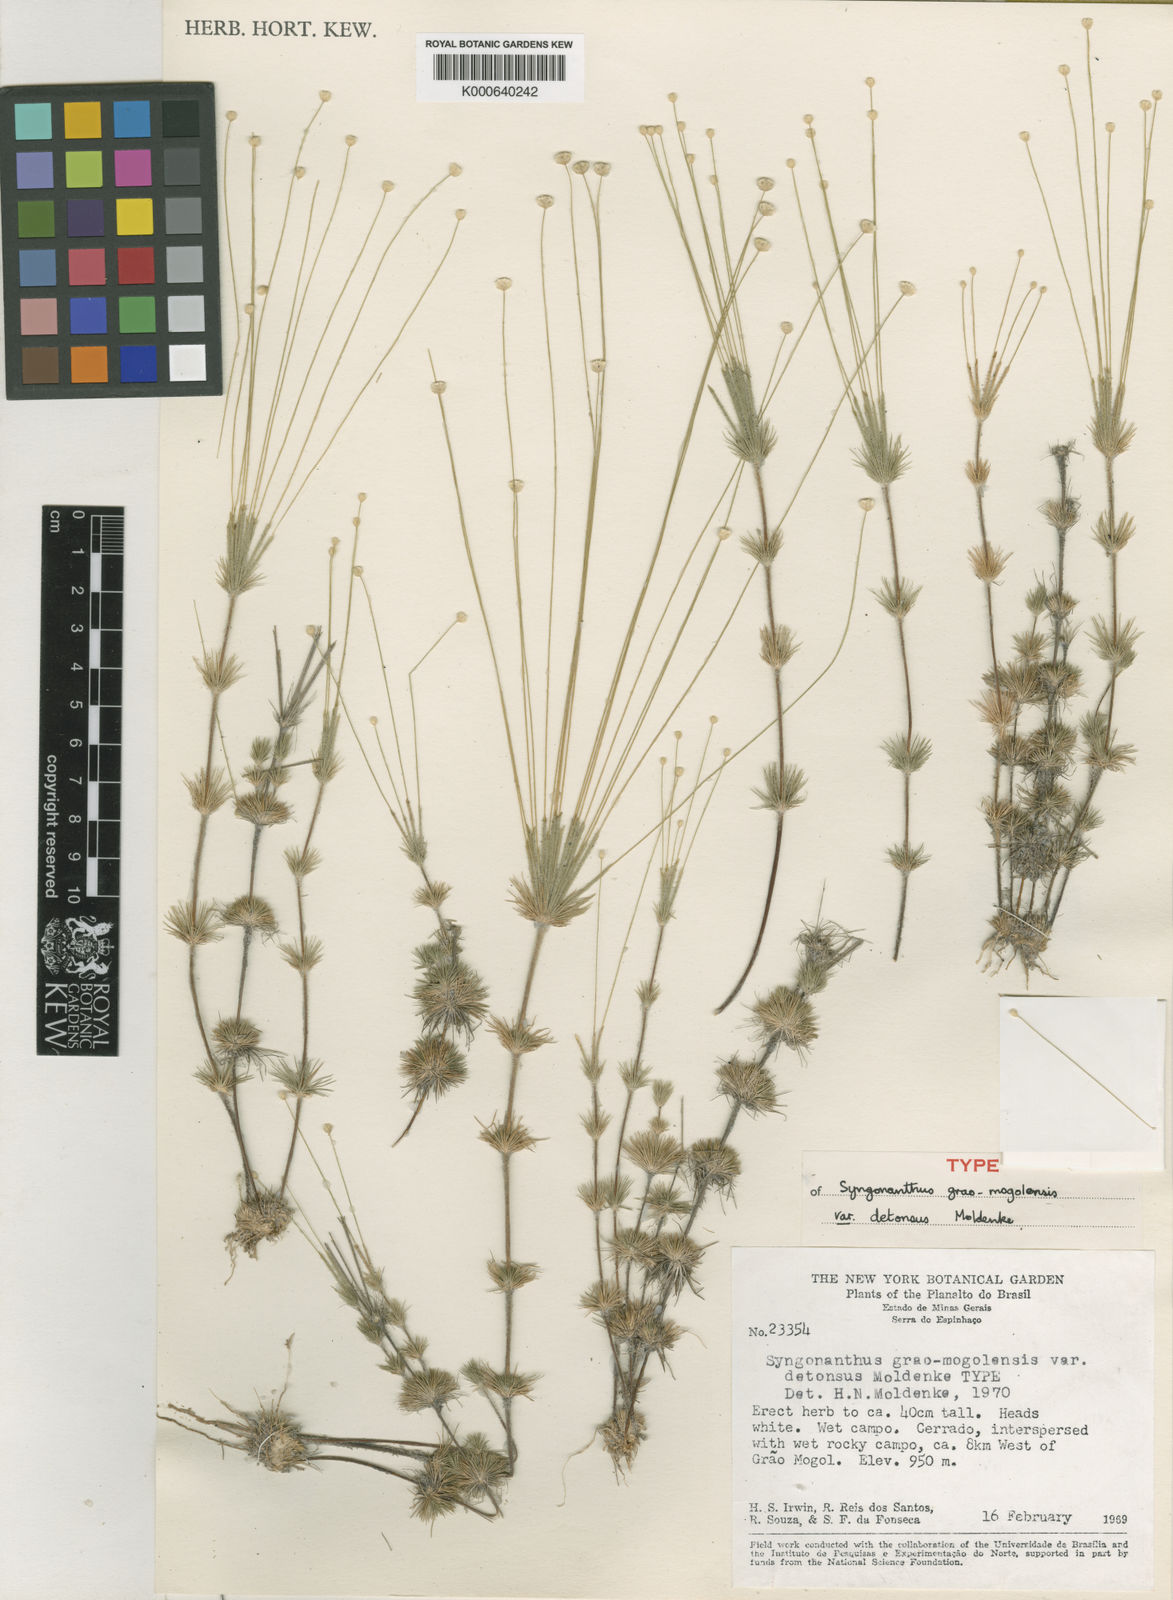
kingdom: Plantae
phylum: Tracheophyta
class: Liliopsida
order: Poales
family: Eriocaulaceae
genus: Syngonanthus
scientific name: Syngonanthus grao-mogolensis
